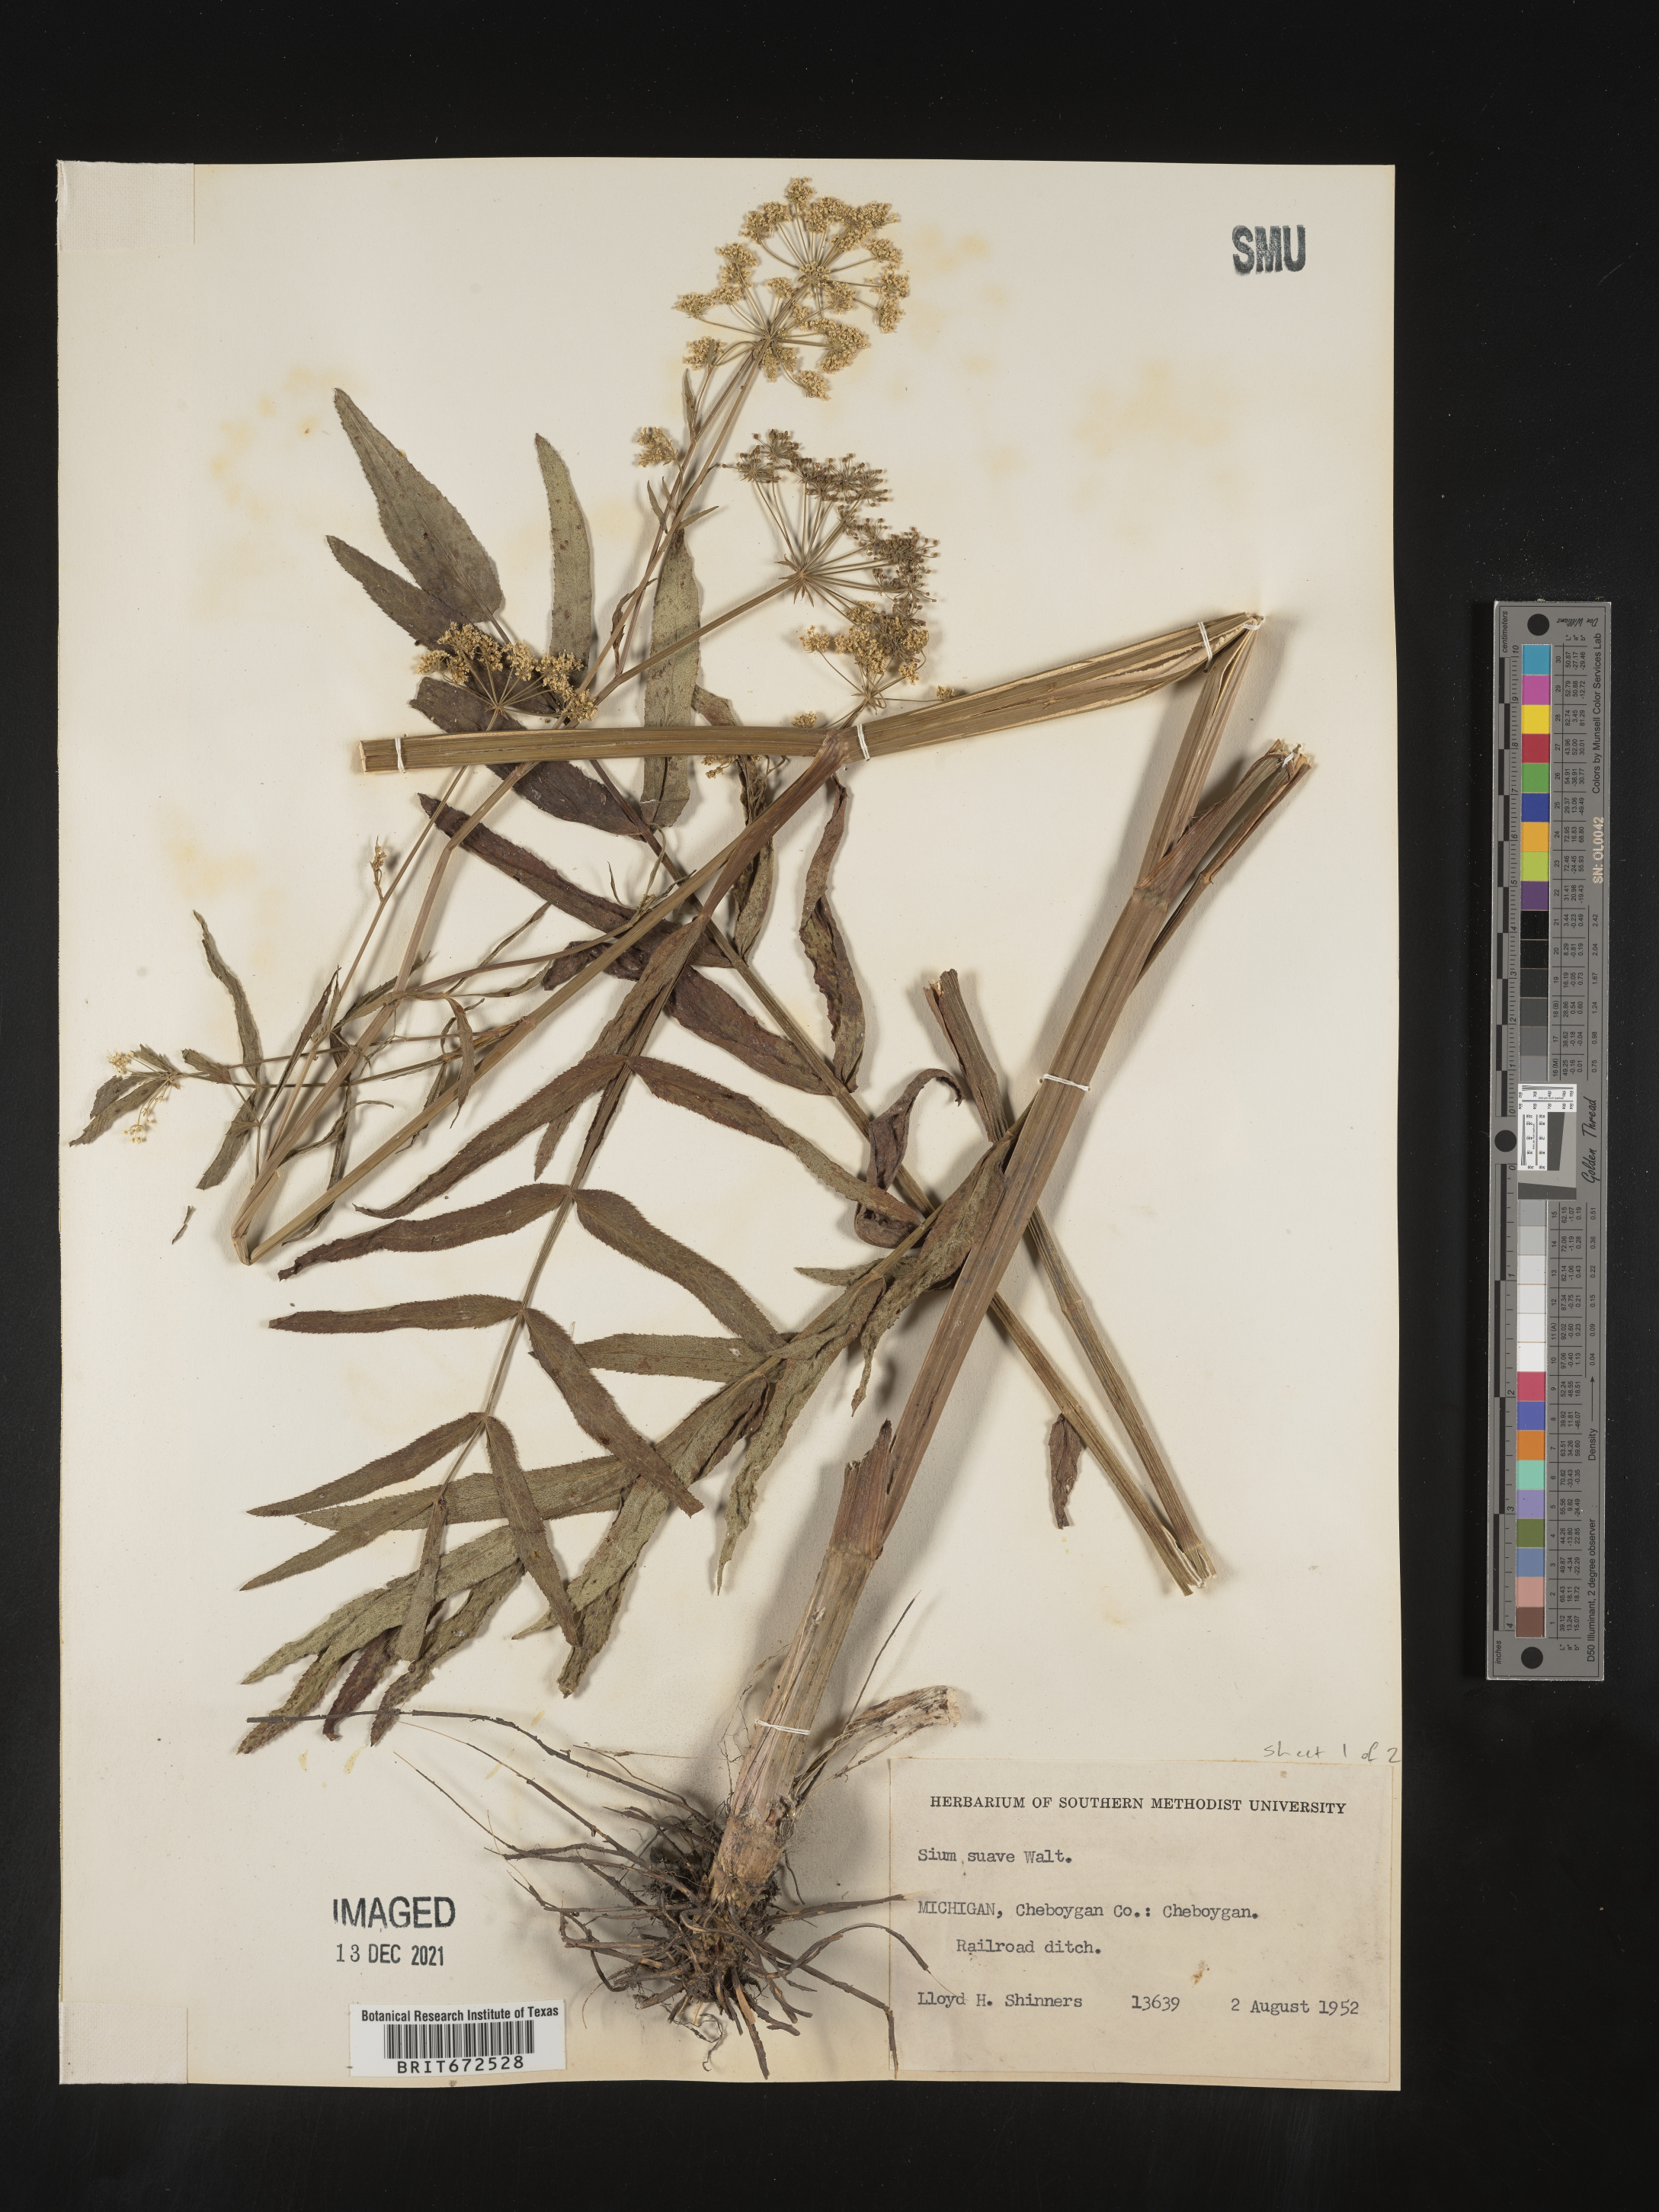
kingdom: Plantae
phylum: Tracheophyta
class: Magnoliopsida
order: Apiales
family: Apiaceae
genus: Sium
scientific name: Sium suave
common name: Hemlock water-parsnip
